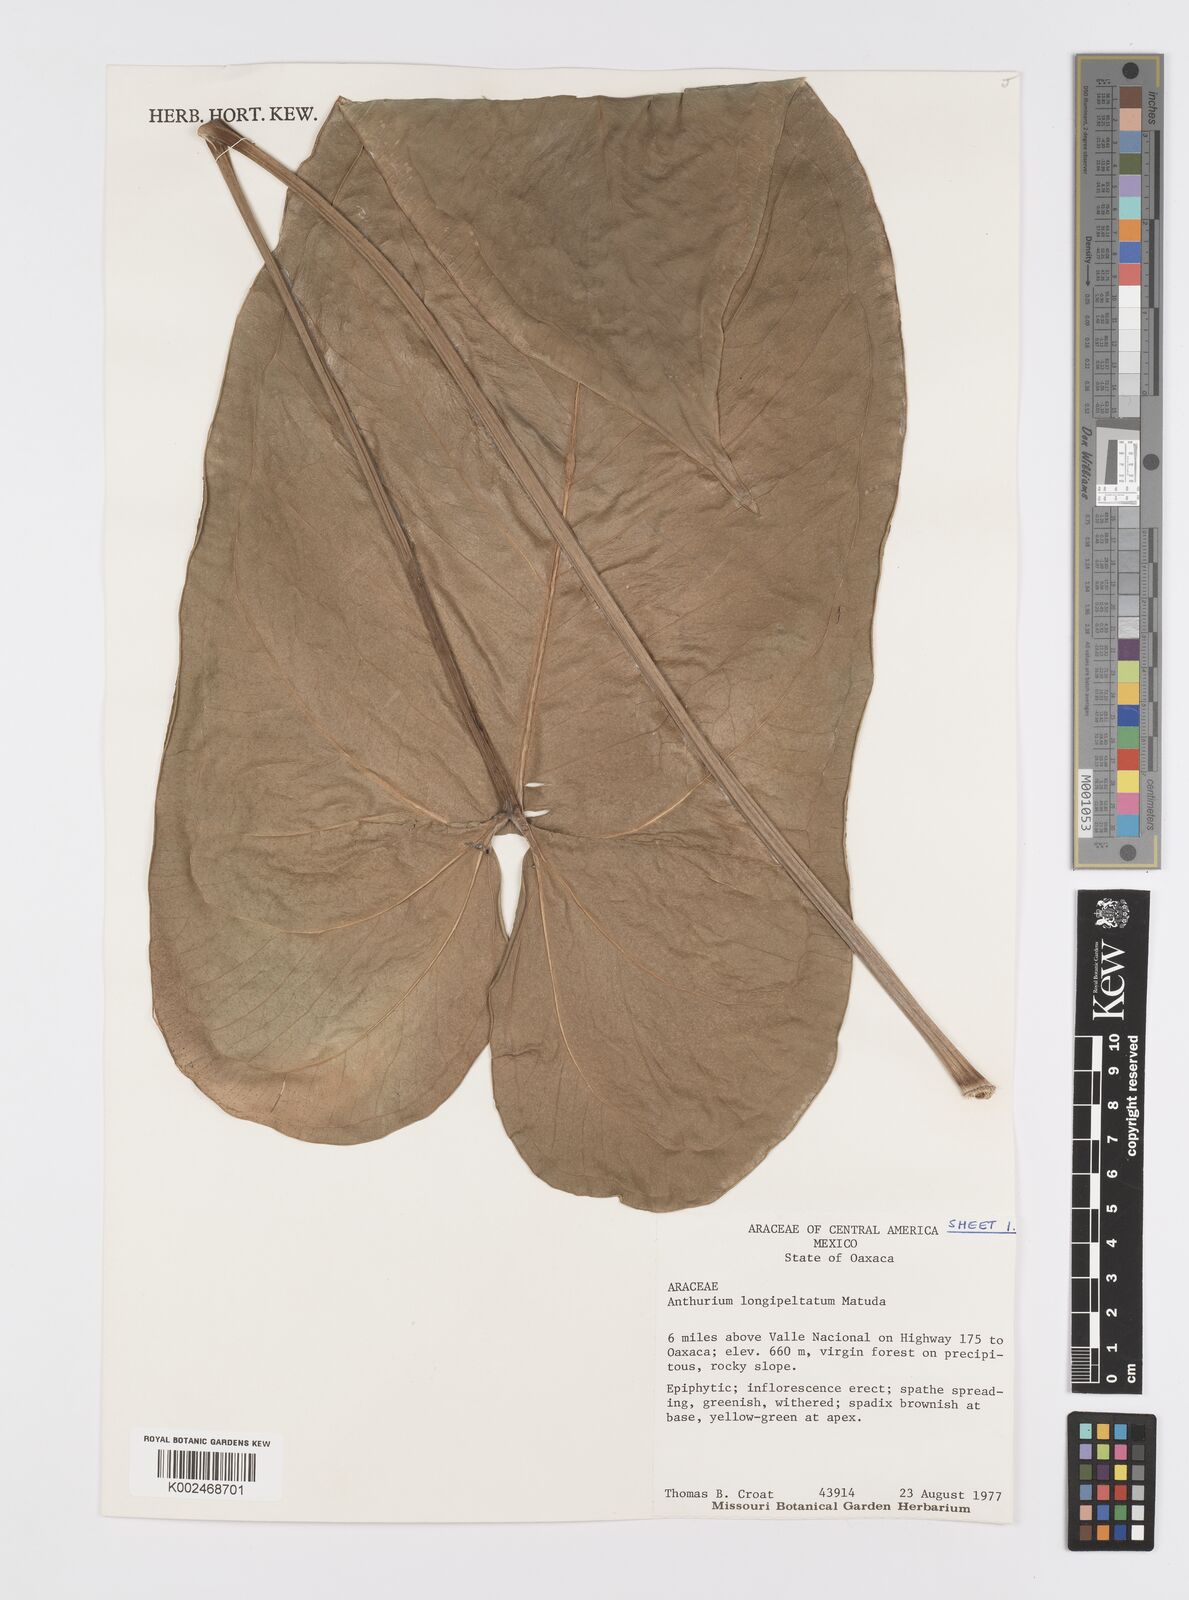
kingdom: Plantae
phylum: Tracheophyta
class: Liliopsida
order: Alismatales
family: Araceae
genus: Anthurium
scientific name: Anthurium longipeltatum
